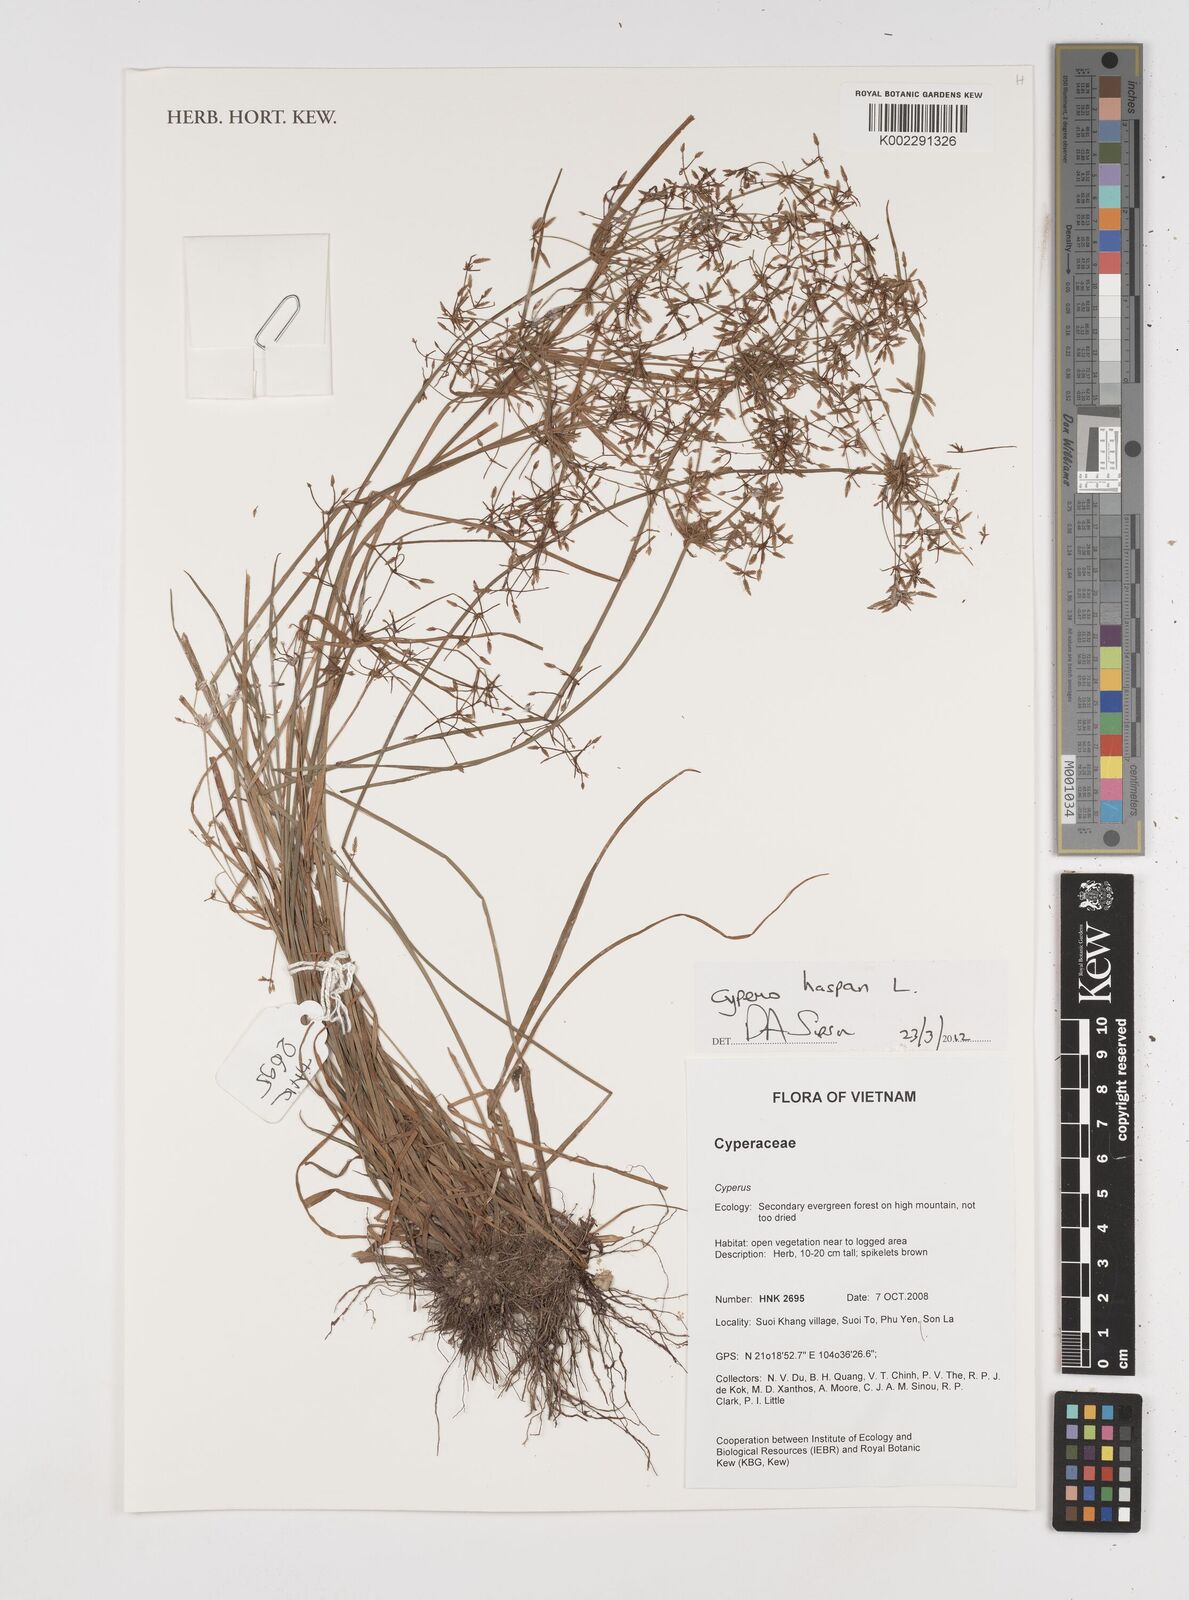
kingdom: Plantae
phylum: Tracheophyta
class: Liliopsida
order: Poales
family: Cyperaceae
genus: Cyperus
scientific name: Cyperus haspan
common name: Haspan flatsedge
